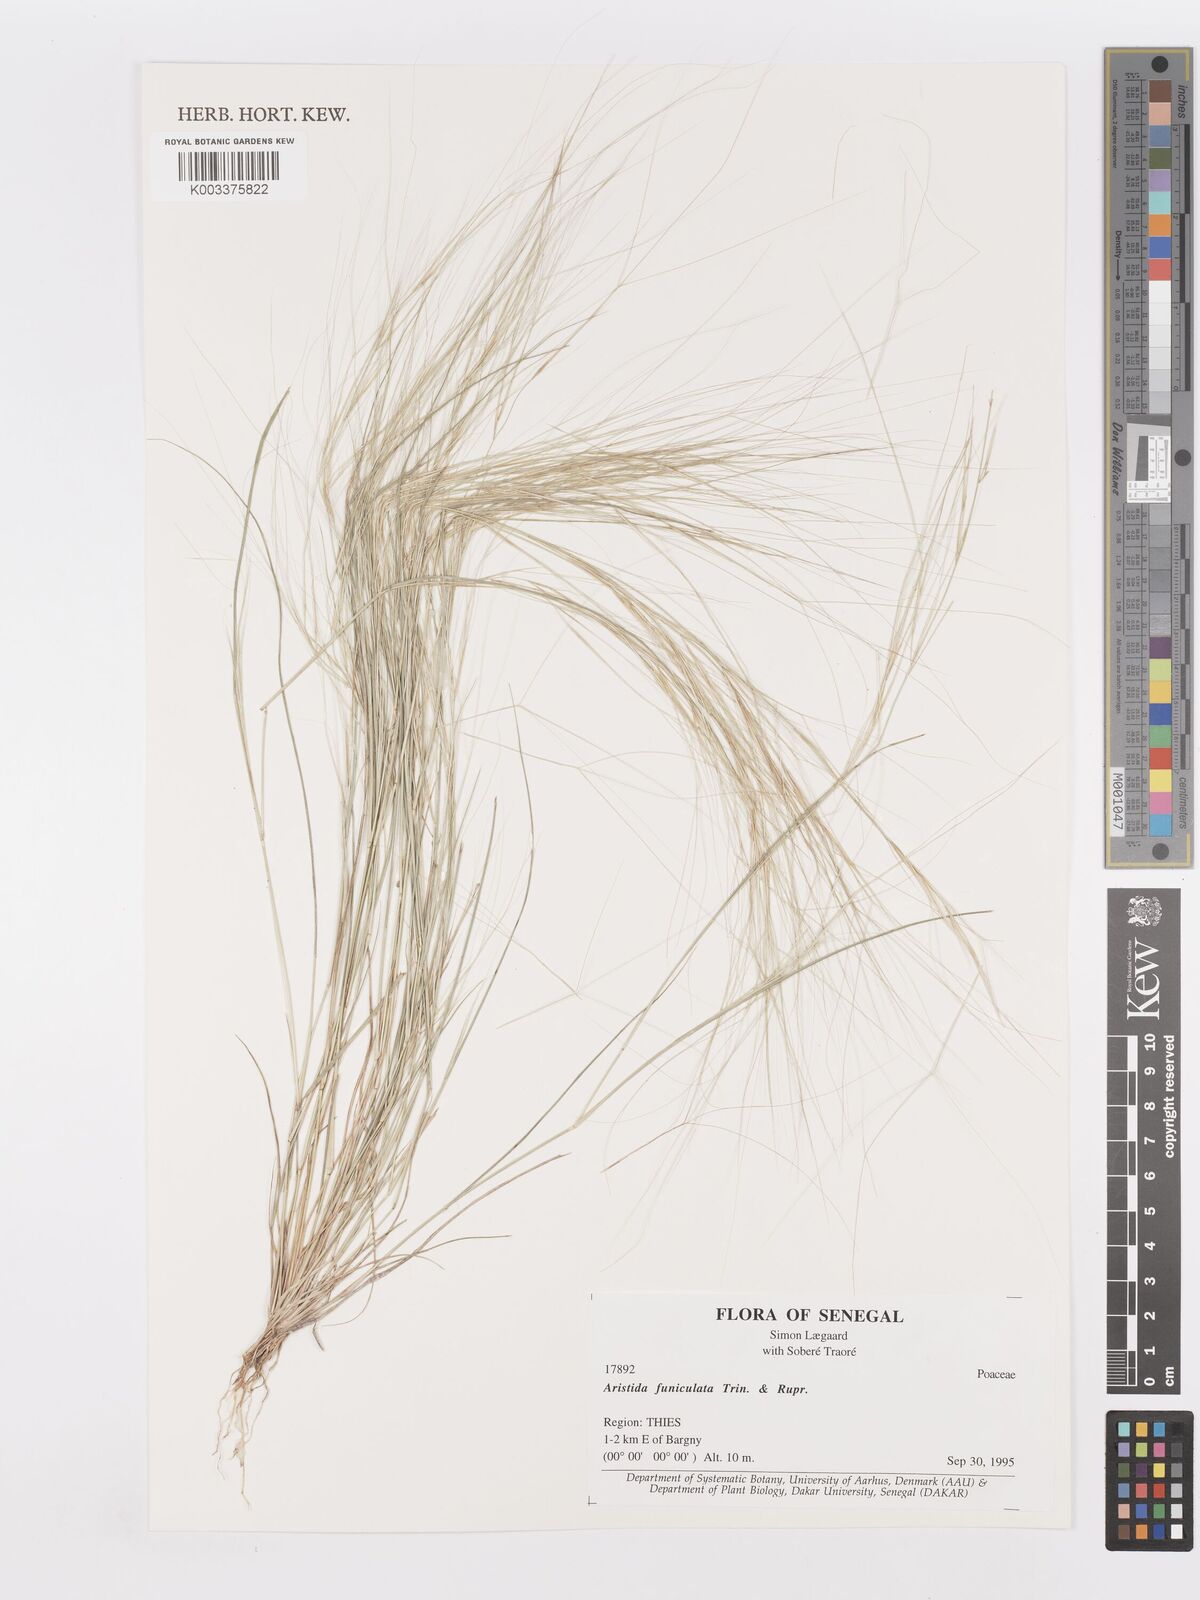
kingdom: Plantae
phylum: Tracheophyta
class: Liliopsida
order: Poales
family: Poaceae
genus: Aristida
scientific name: Aristida funiculata
